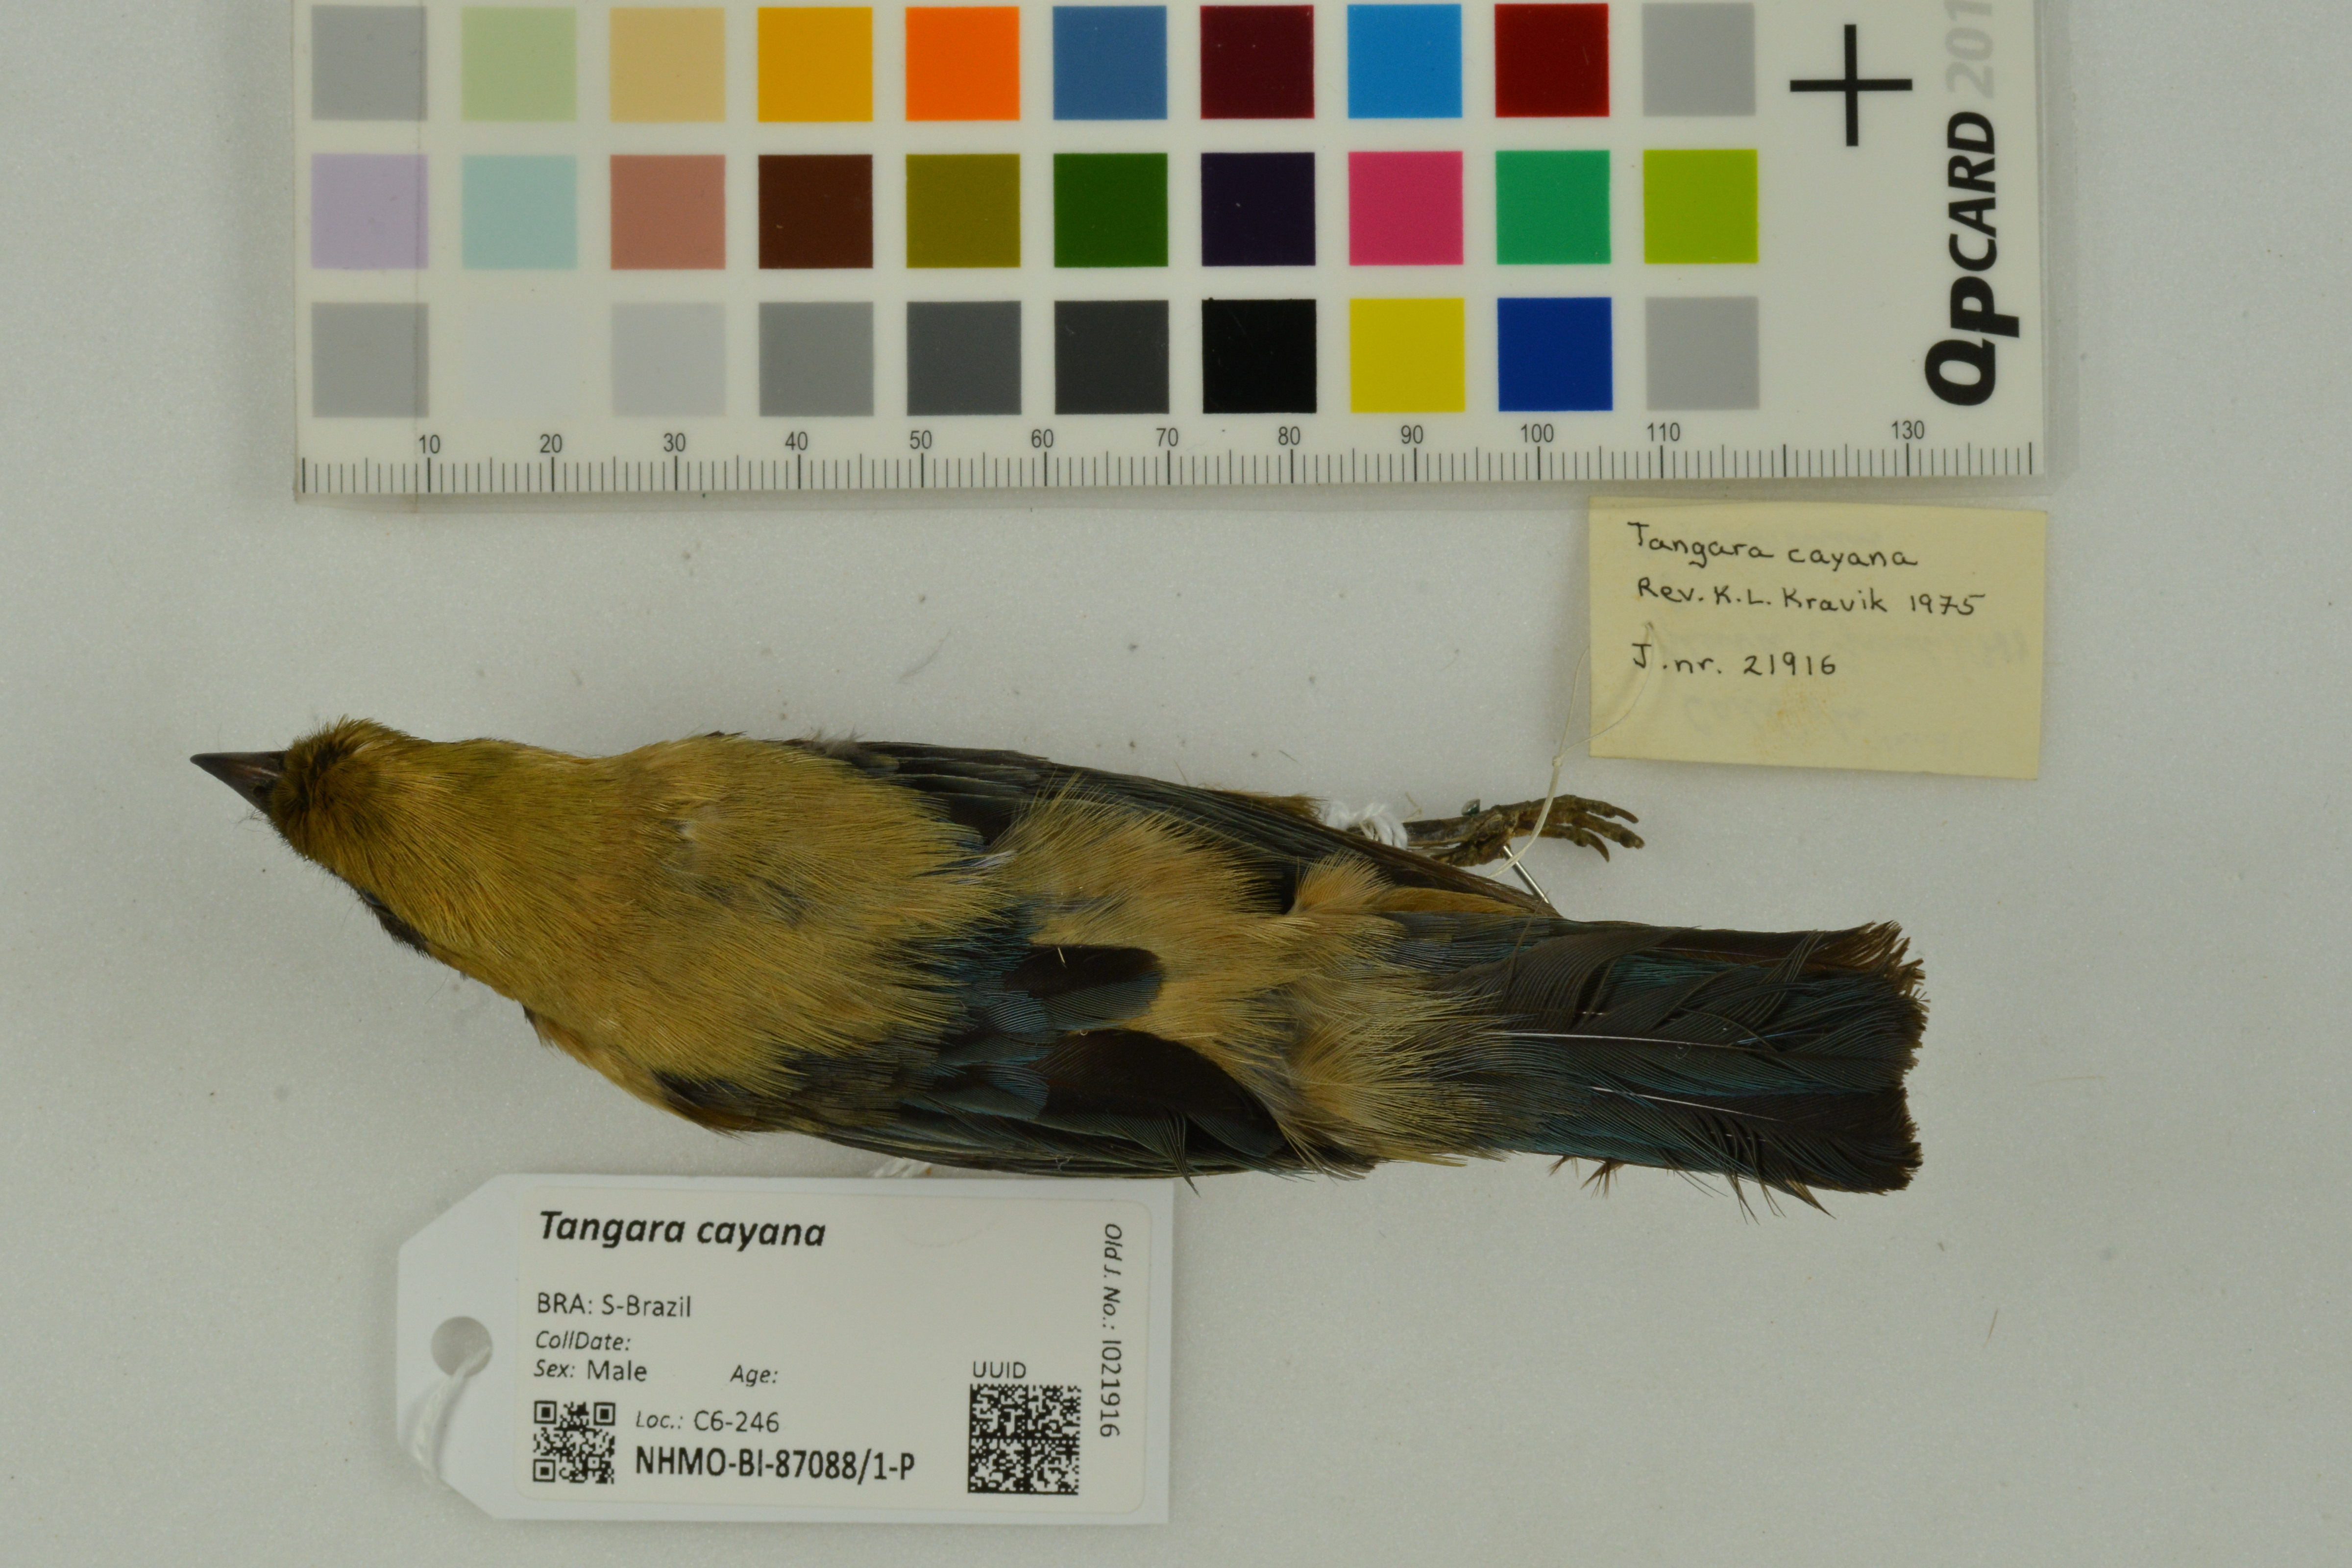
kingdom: Animalia
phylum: Chordata
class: Aves
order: Passeriformes
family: Thraupidae
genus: Stilpnia
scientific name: Stilpnia cayana
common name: Burnished-buff tanager
